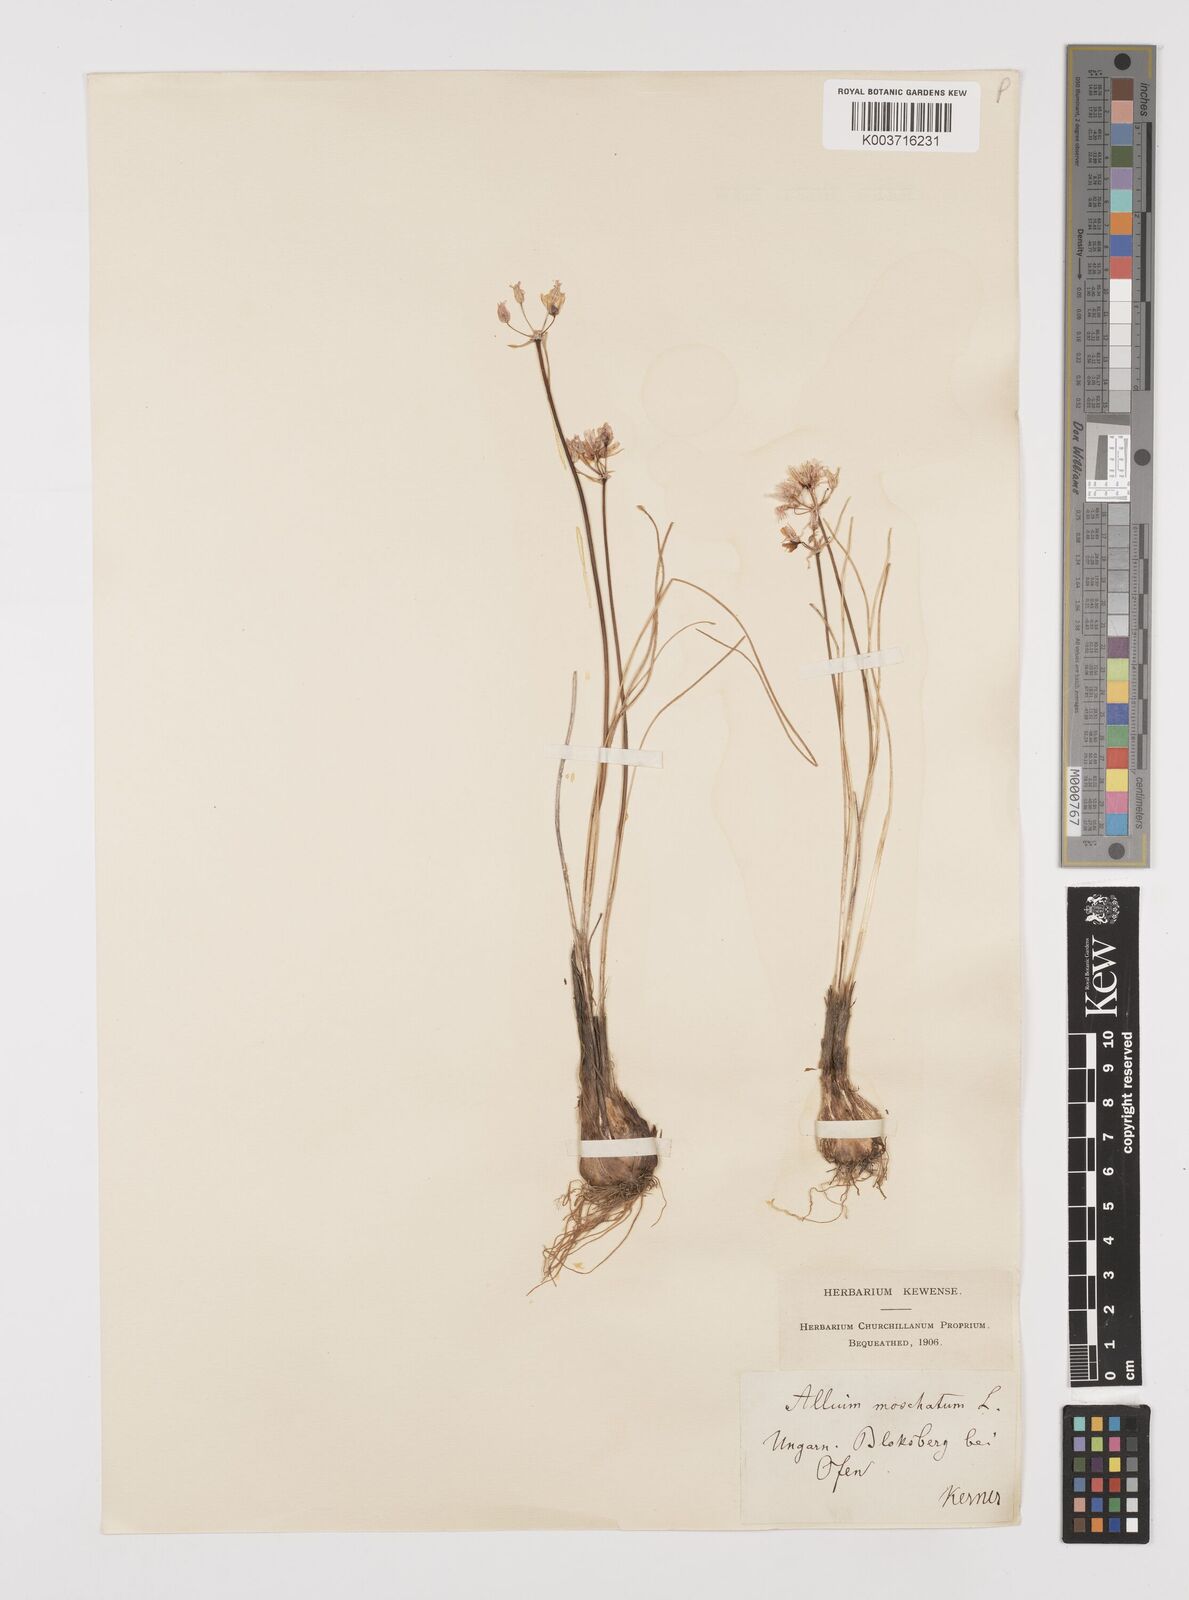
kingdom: Plantae
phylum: Tracheophyta
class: Liliopsida
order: Asparagales
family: Amaryllidaceae
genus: Allium
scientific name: Allium moschatum
